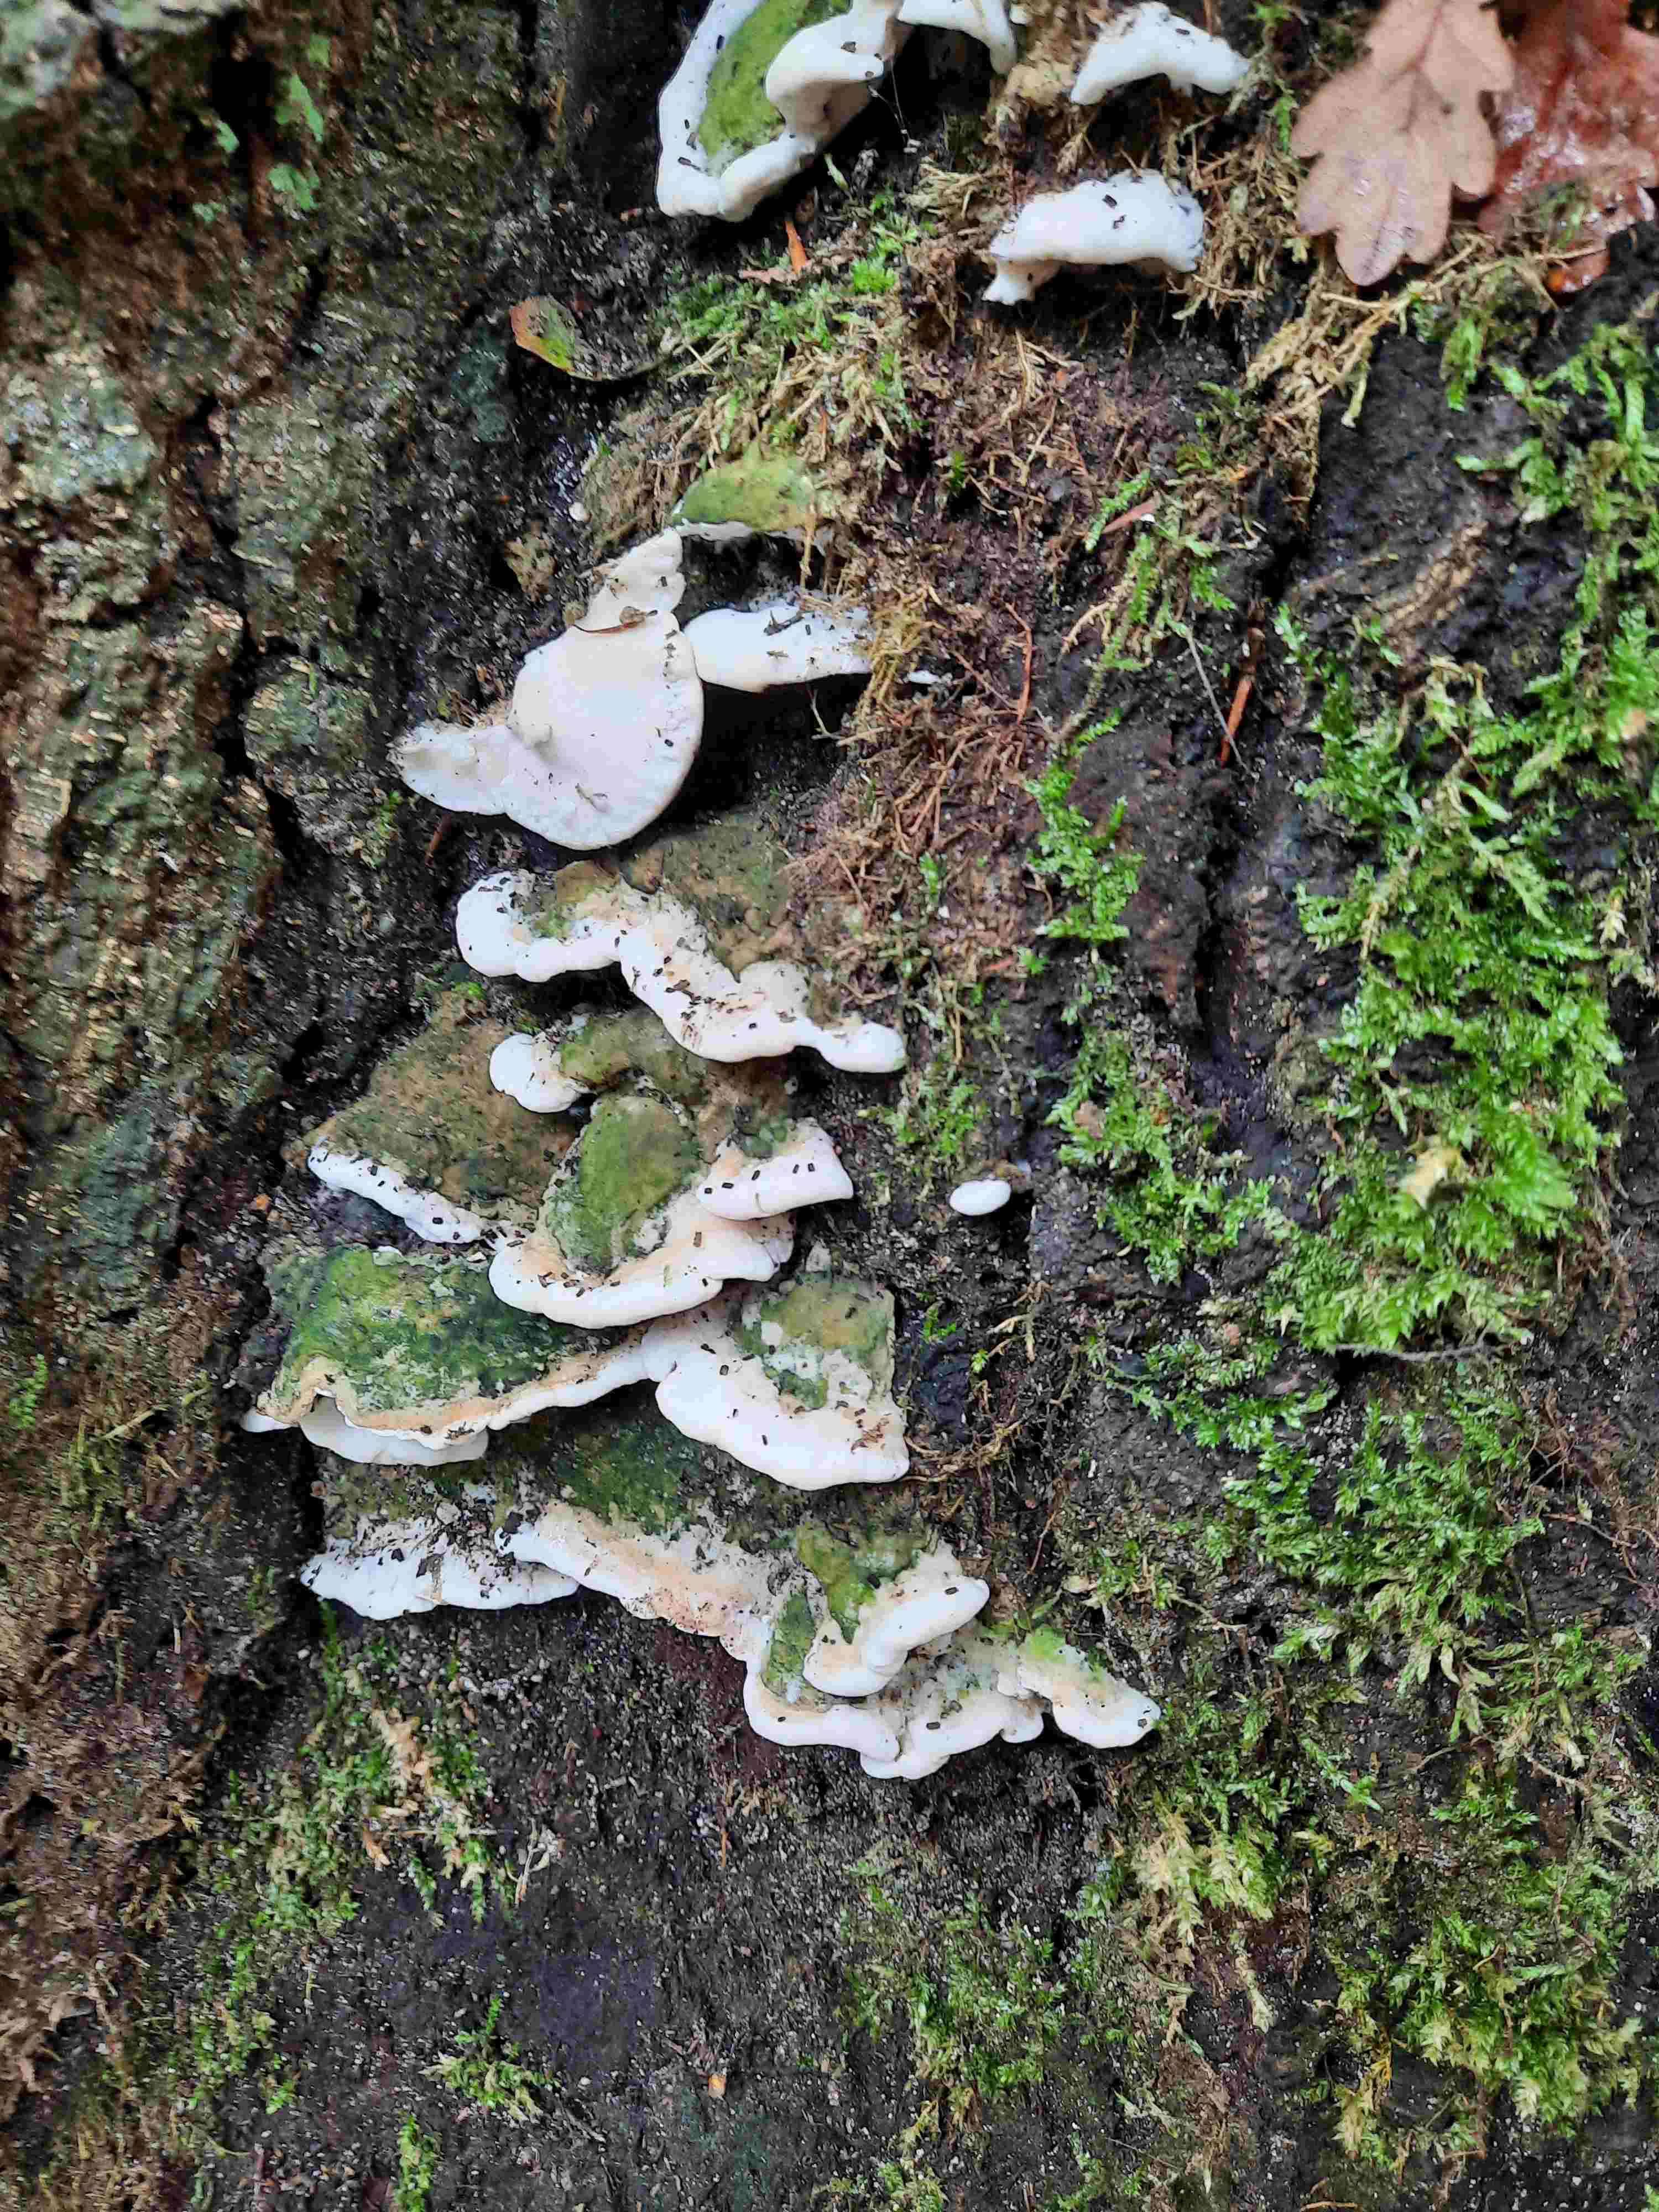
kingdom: Fungi
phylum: Basidiomycota
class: Agaricomycetes
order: Hymenochaetales
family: Oxyporaceae
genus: Oxyporus
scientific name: Oxyporus populinus
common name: sammenvokset trylleporesvamp
